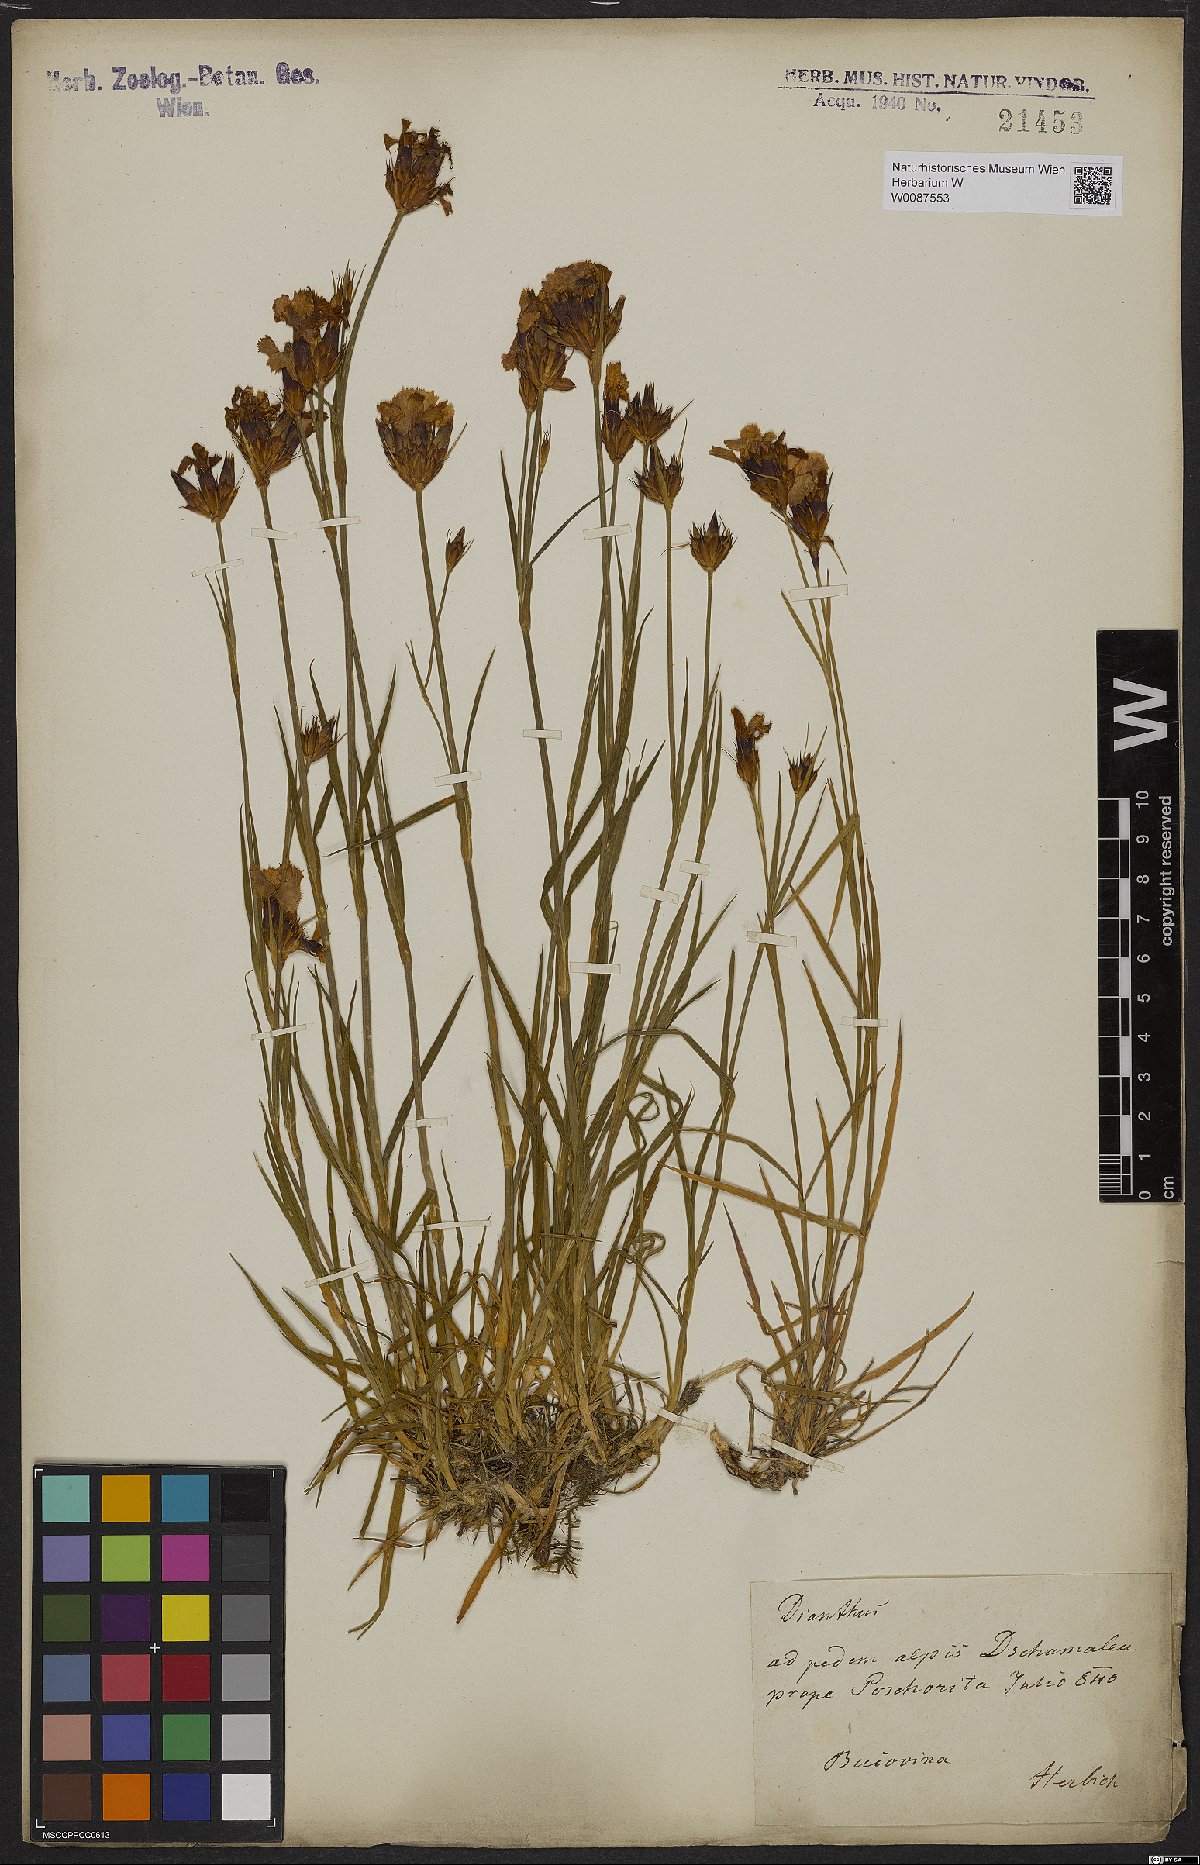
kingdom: Plantae
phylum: Tracheophyta
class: Magnoliopsida
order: Caryophyllales
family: Caryophyllaceae
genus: Dianthus
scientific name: Dianthus
